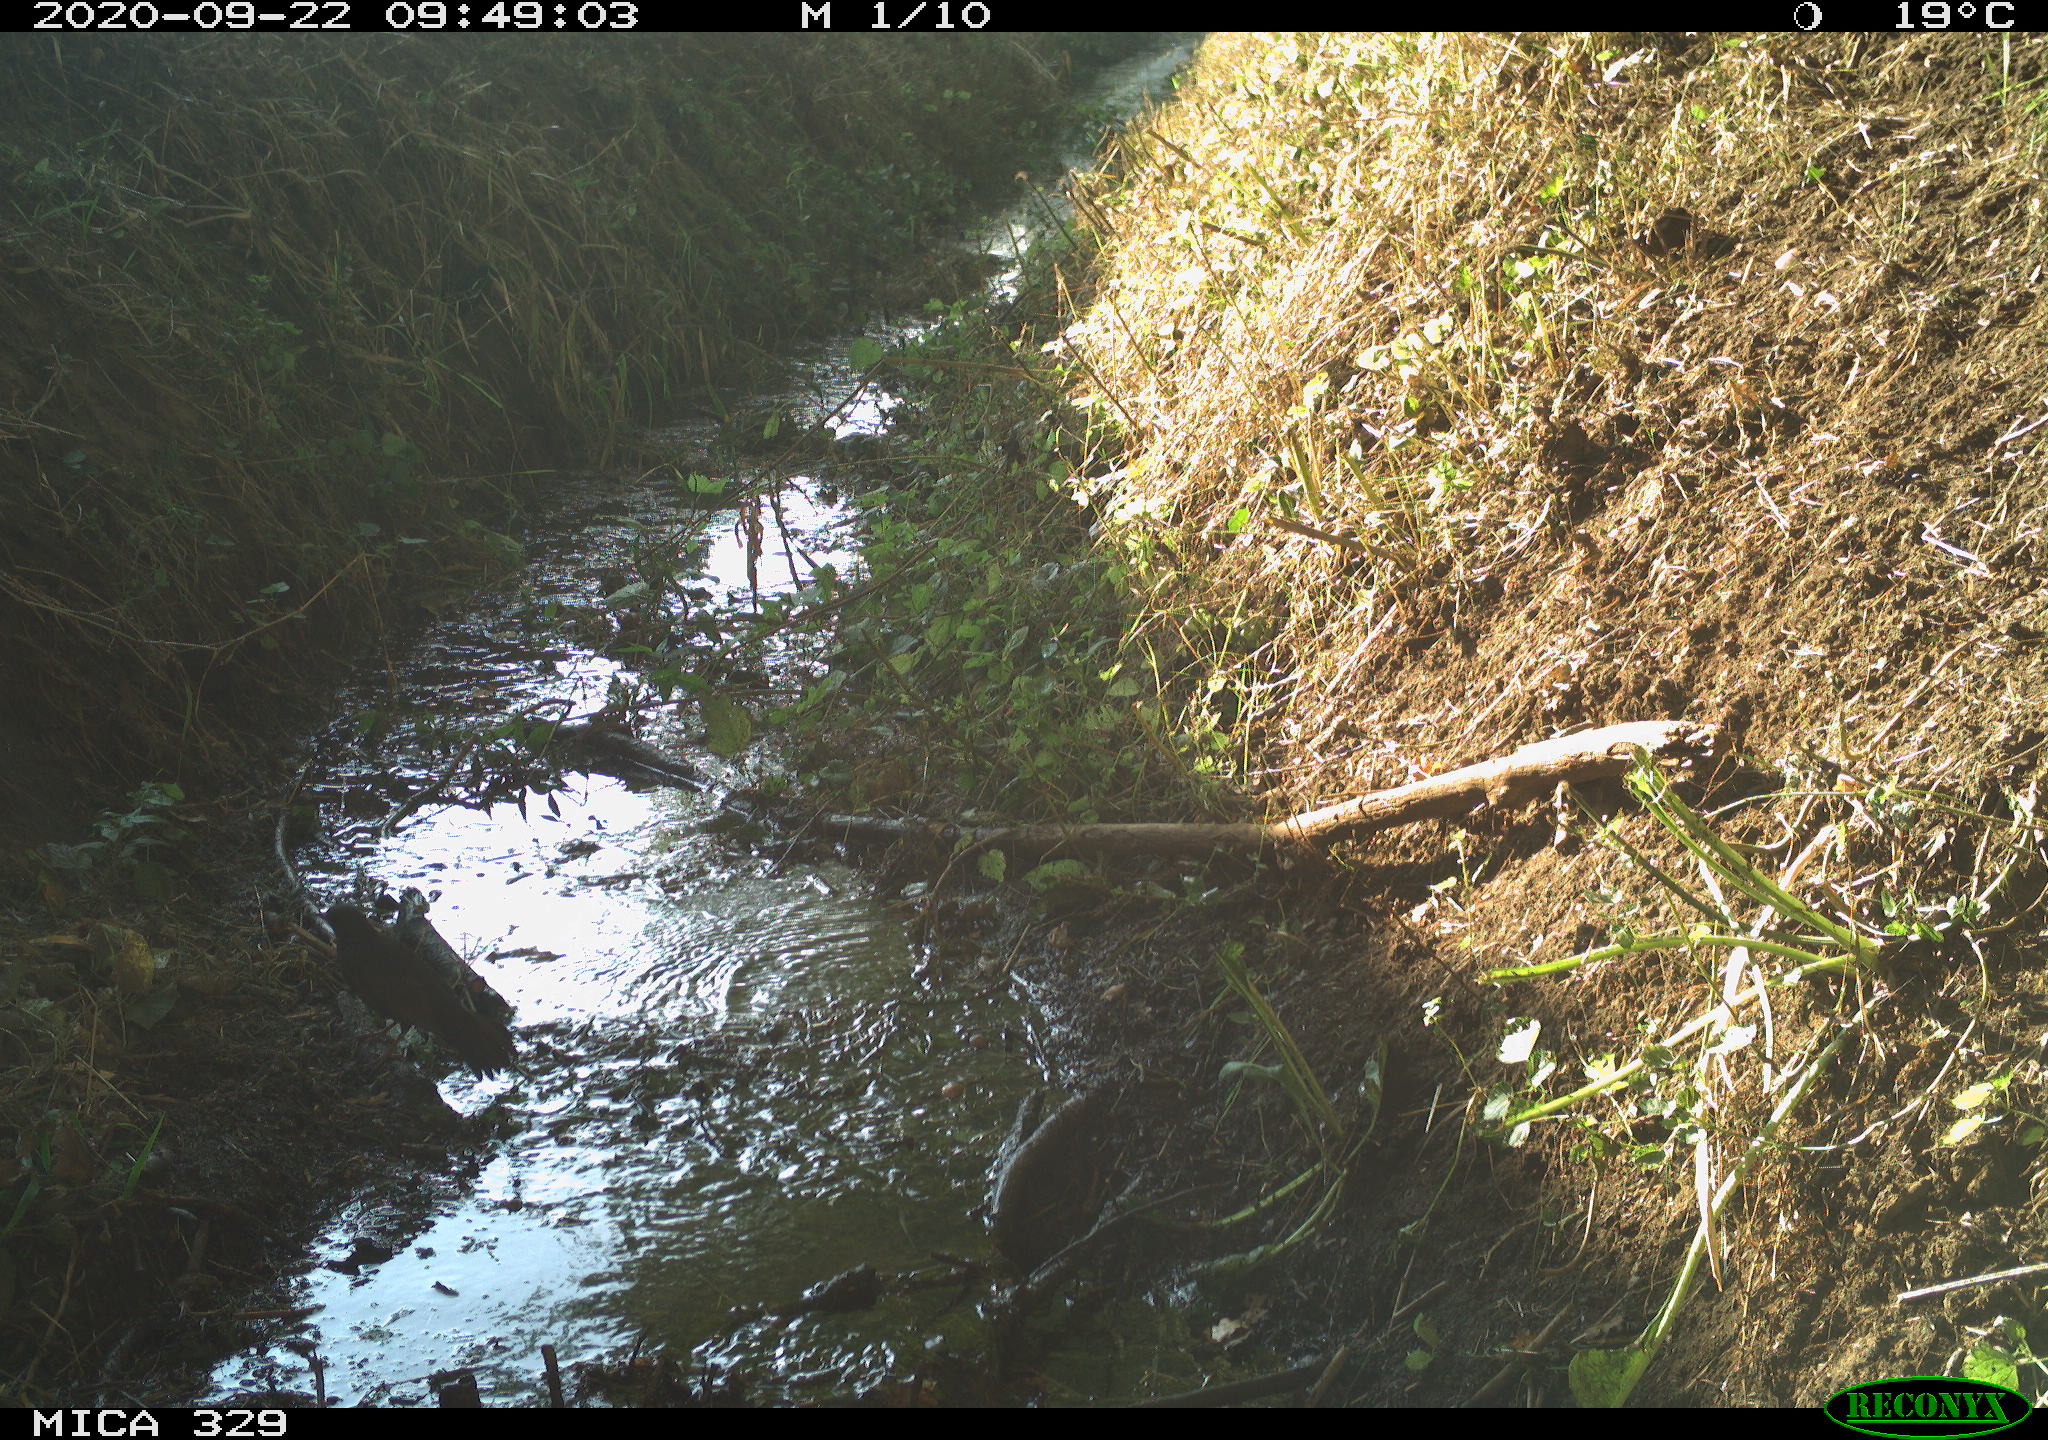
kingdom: Animalia
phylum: Chordata
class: Aves
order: Passeriformes
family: Turdidae
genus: Turdus
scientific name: Turdus philomelos
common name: Song thrush
